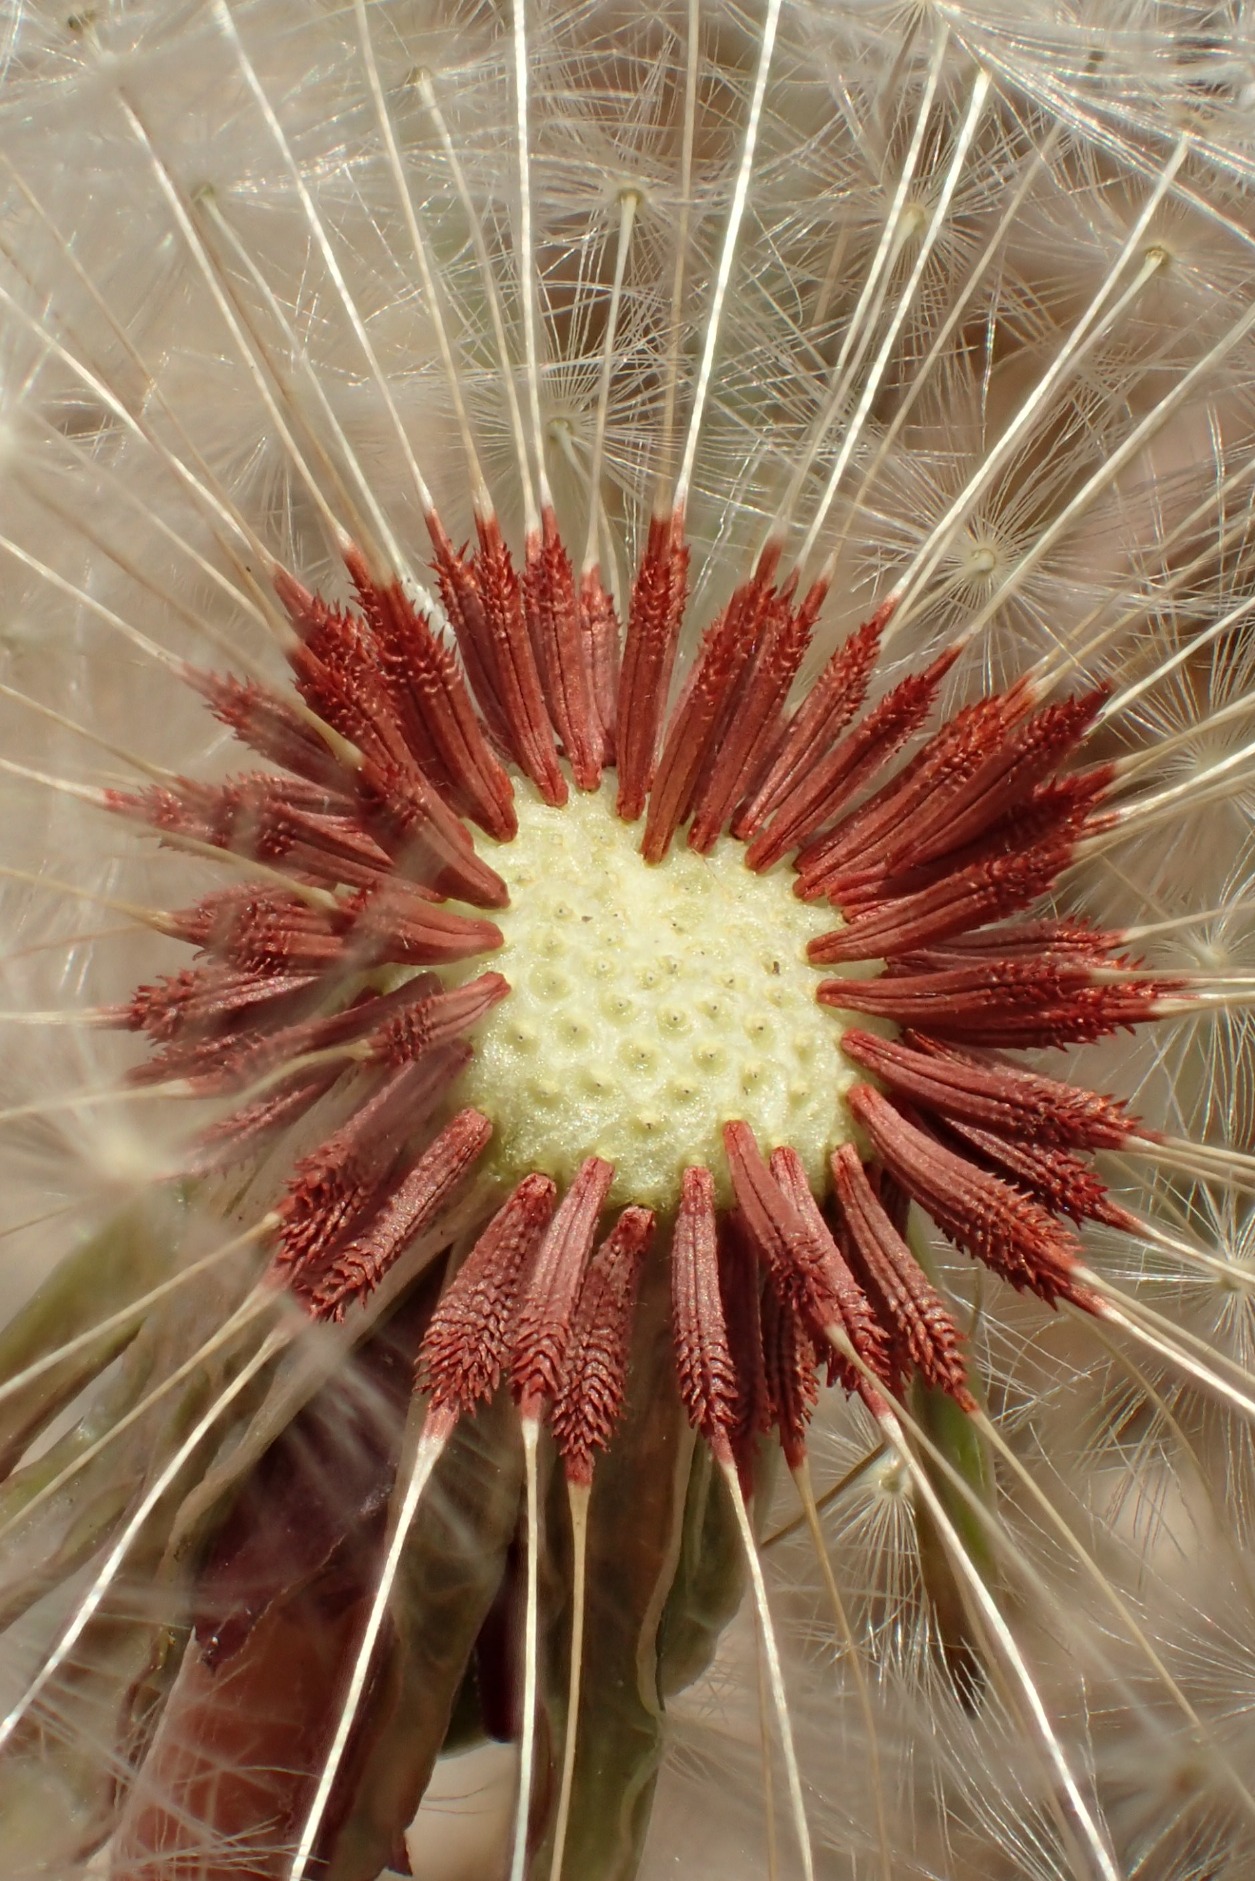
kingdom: Plantae
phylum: Tracheophyta
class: Magnoliopsida
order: Asterales
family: Asteraceae
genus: Taraxacum
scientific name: Taraxacum brachyglossum
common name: Mørk sandmælkebøtte
